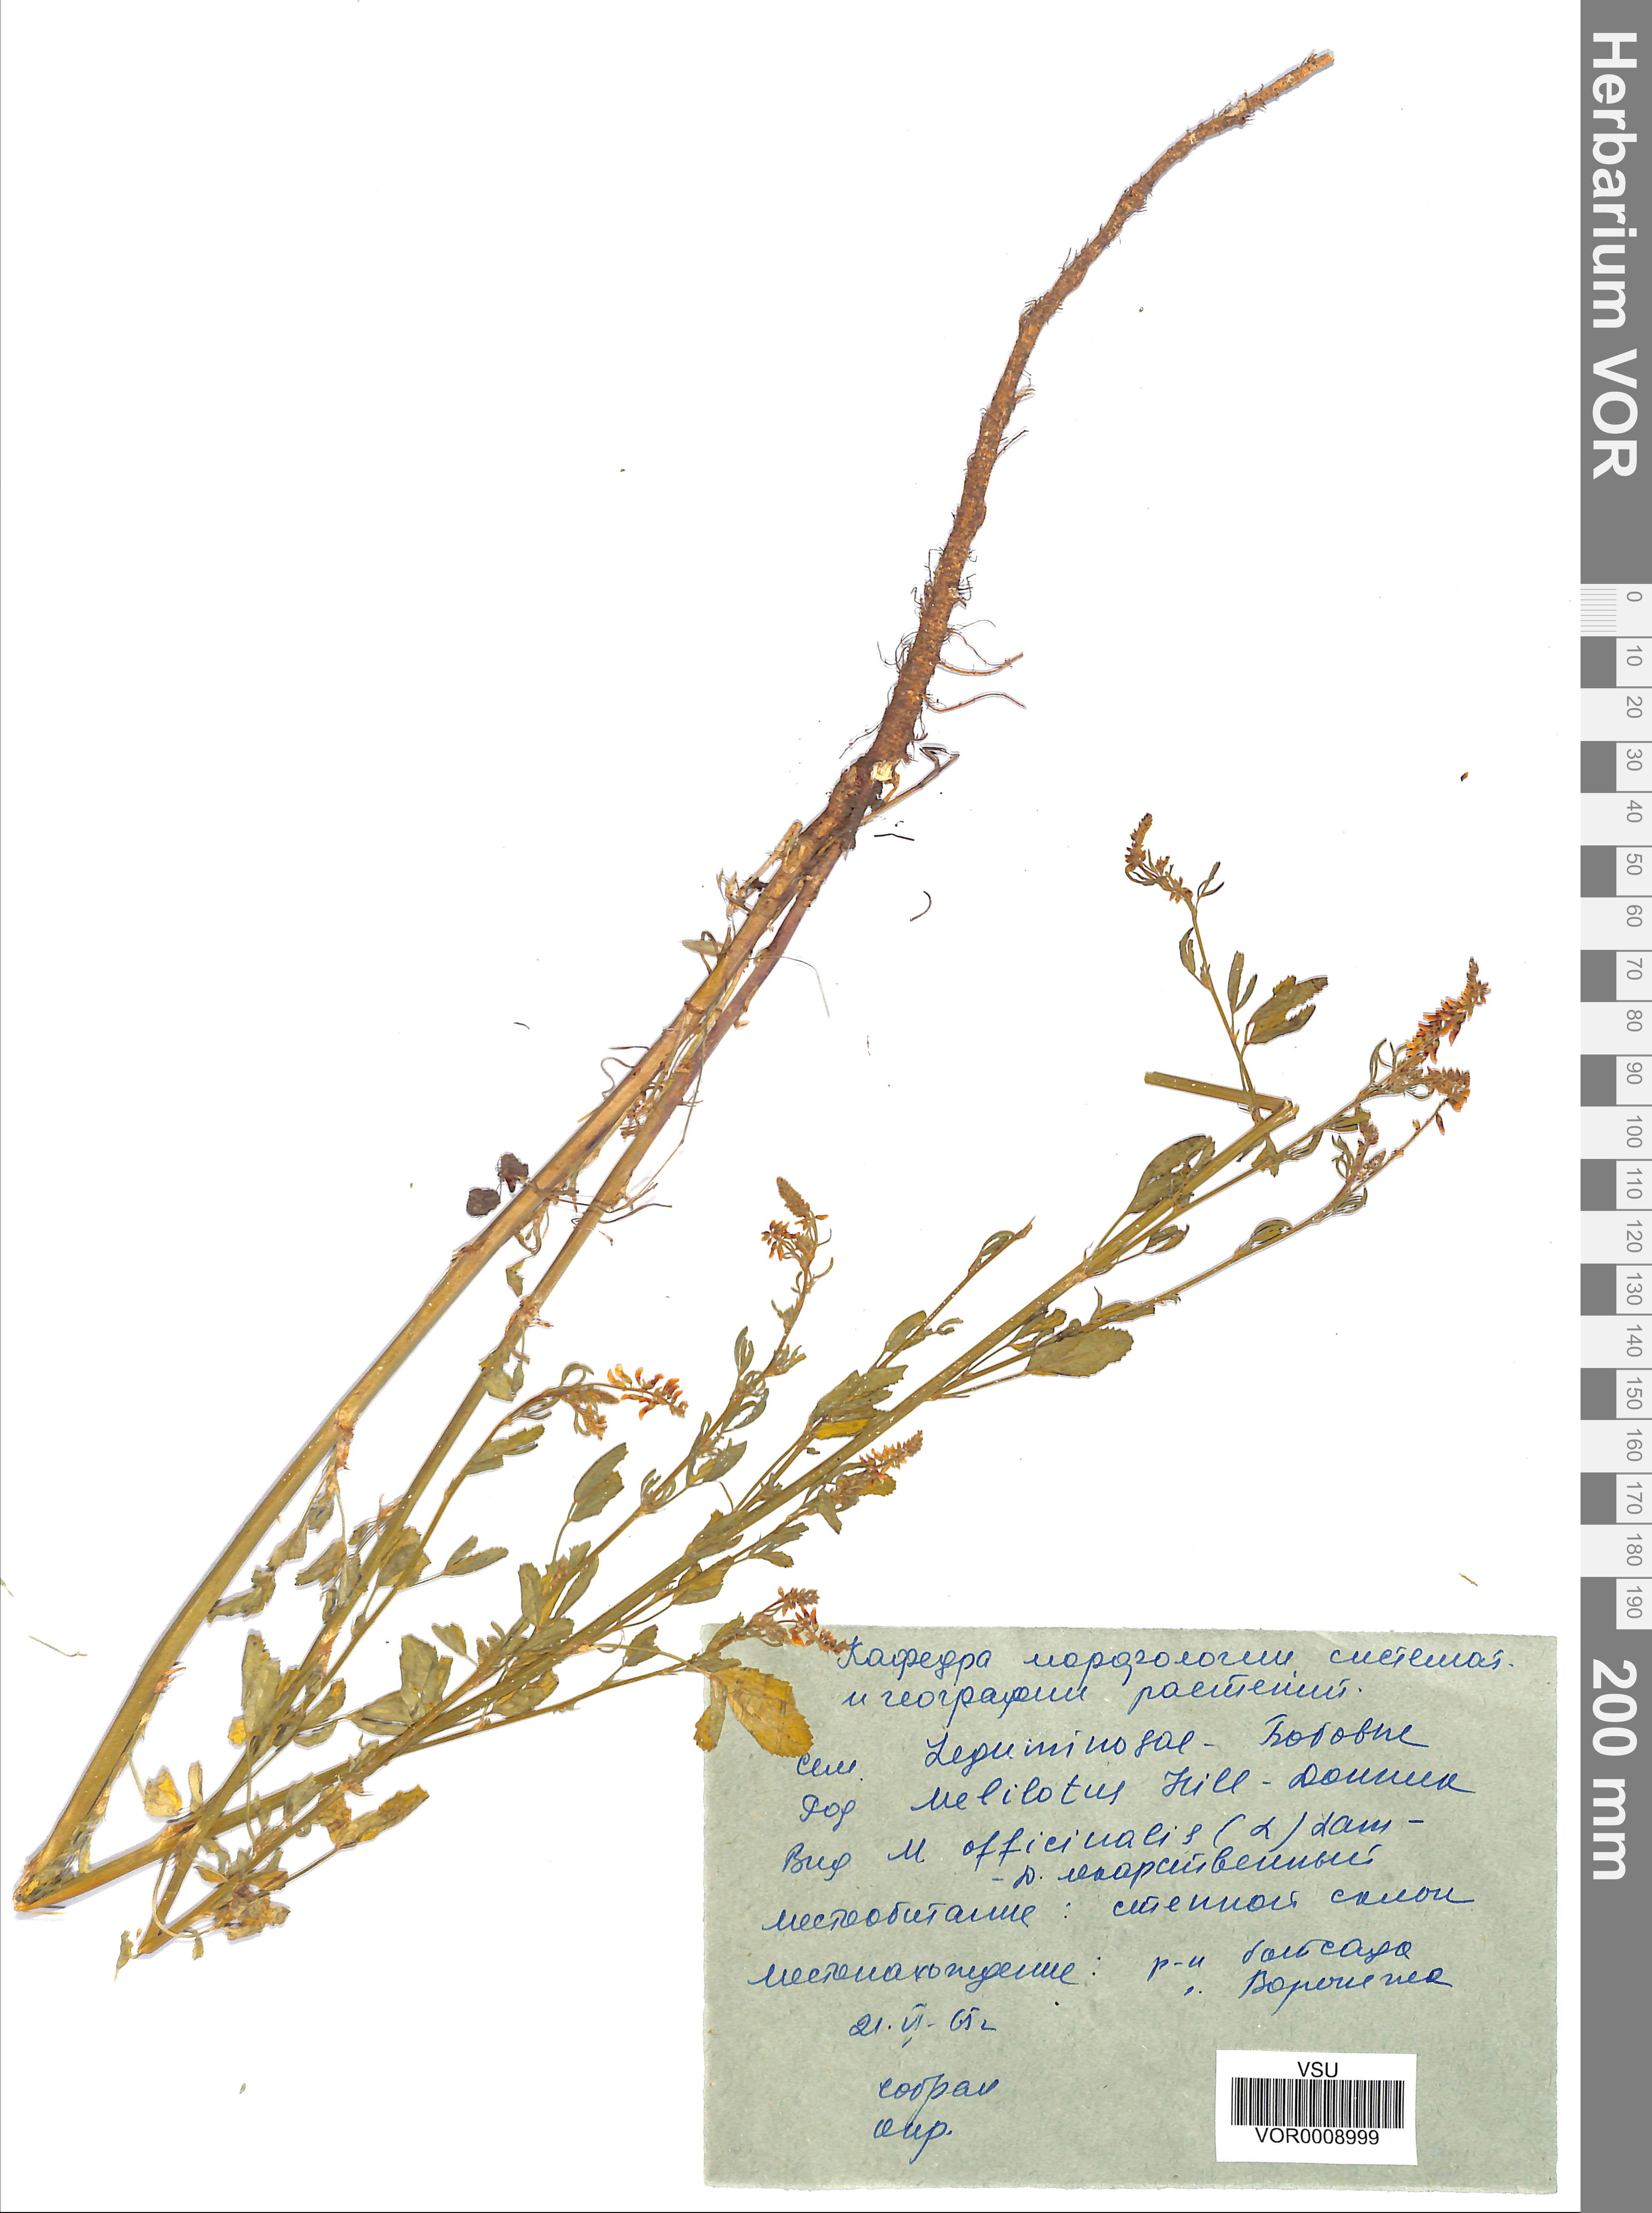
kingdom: Plantae
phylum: Tracheophyta
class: Magnoliopsida
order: Fabales
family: Fabaceae
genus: Melilotus
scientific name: Melilotus officinalis
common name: Sweetclover
